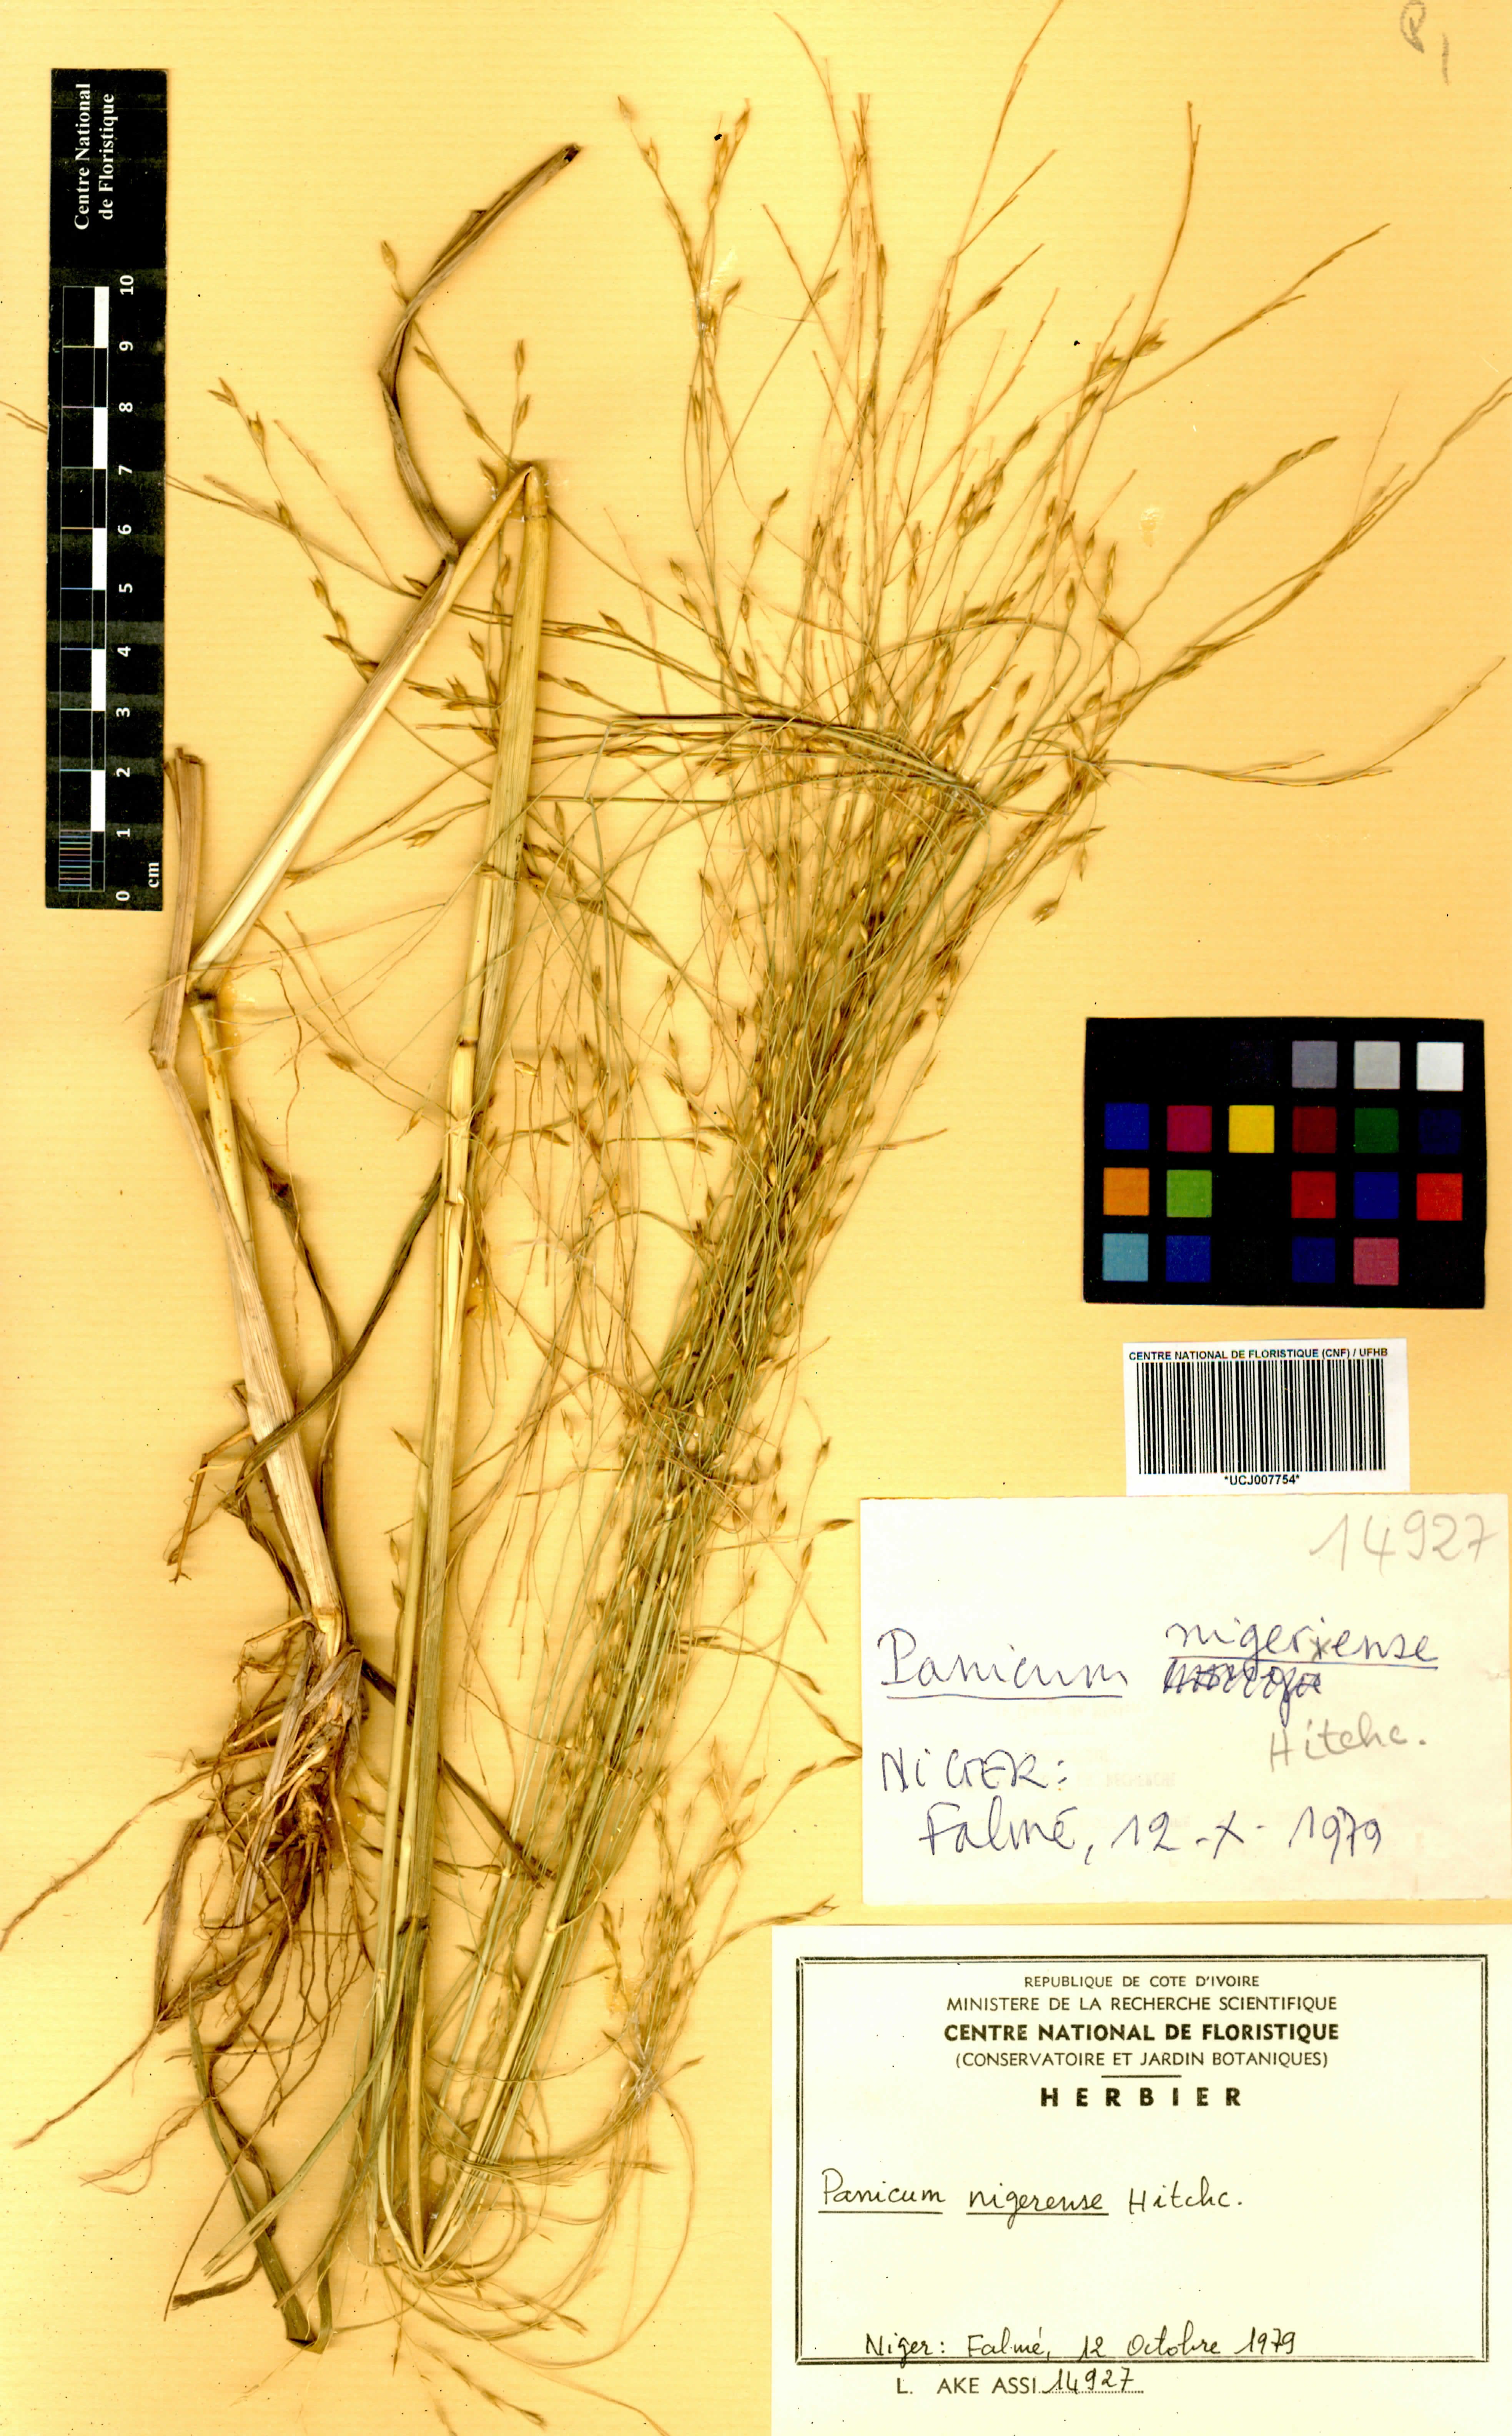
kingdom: Plantae
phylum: Tracheophyta
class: Liliopsida
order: Poales
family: Poaceae
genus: Panicum
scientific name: Panicum nigerense
